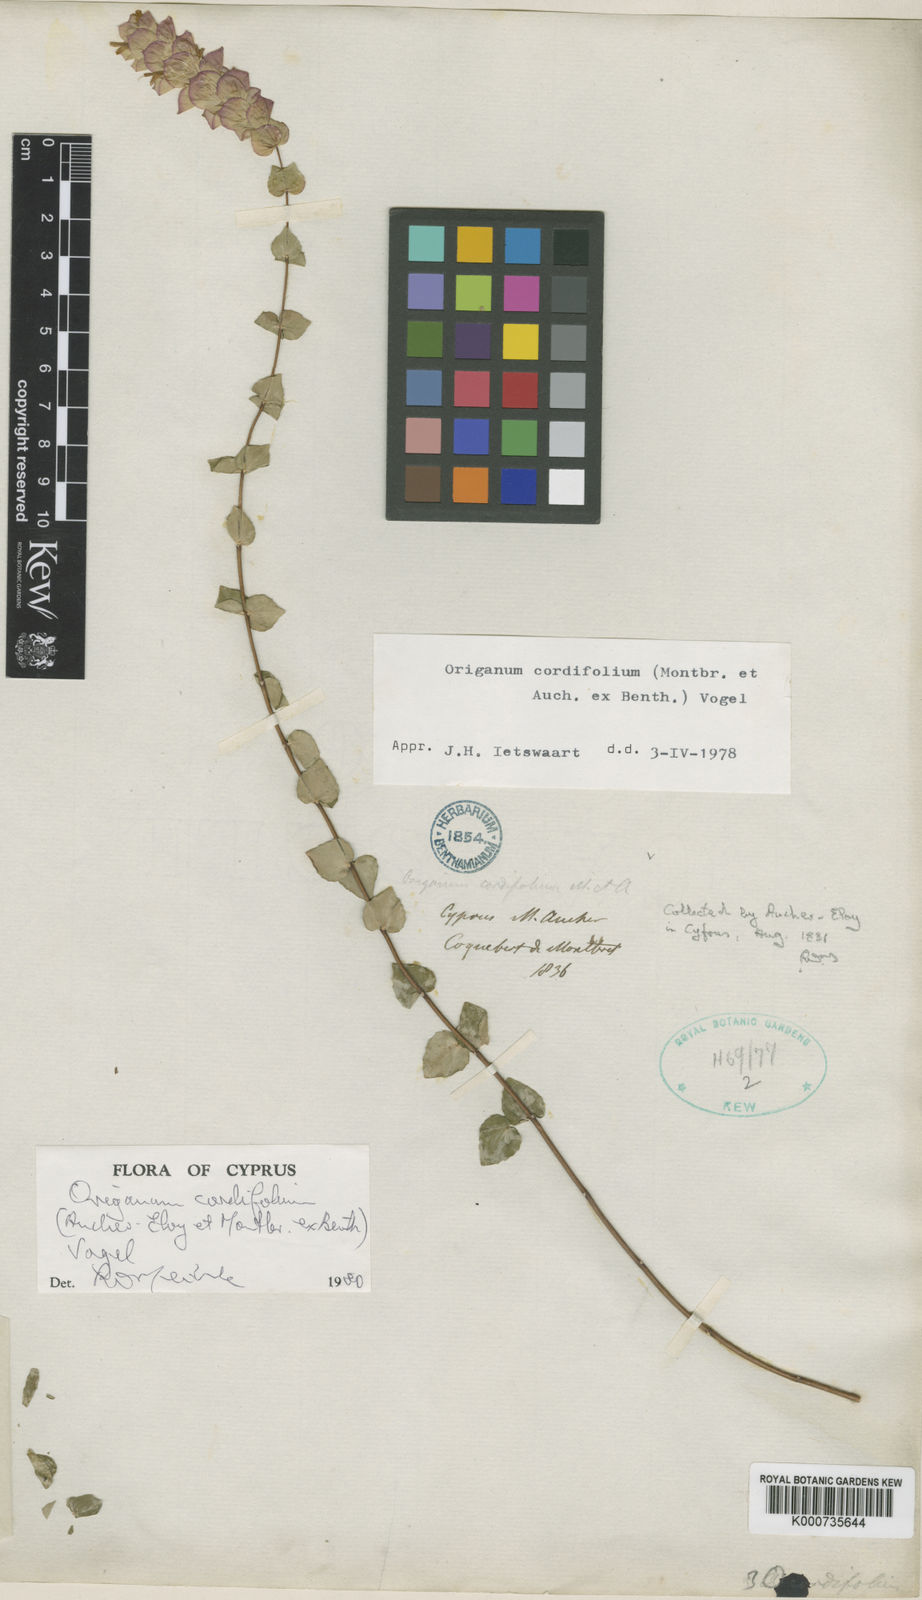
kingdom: Plantae
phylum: Tracheophyta
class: Magnoliopsida
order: Lamiales
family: Lamiaceae
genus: Origanum
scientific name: Origanum cordifolium
